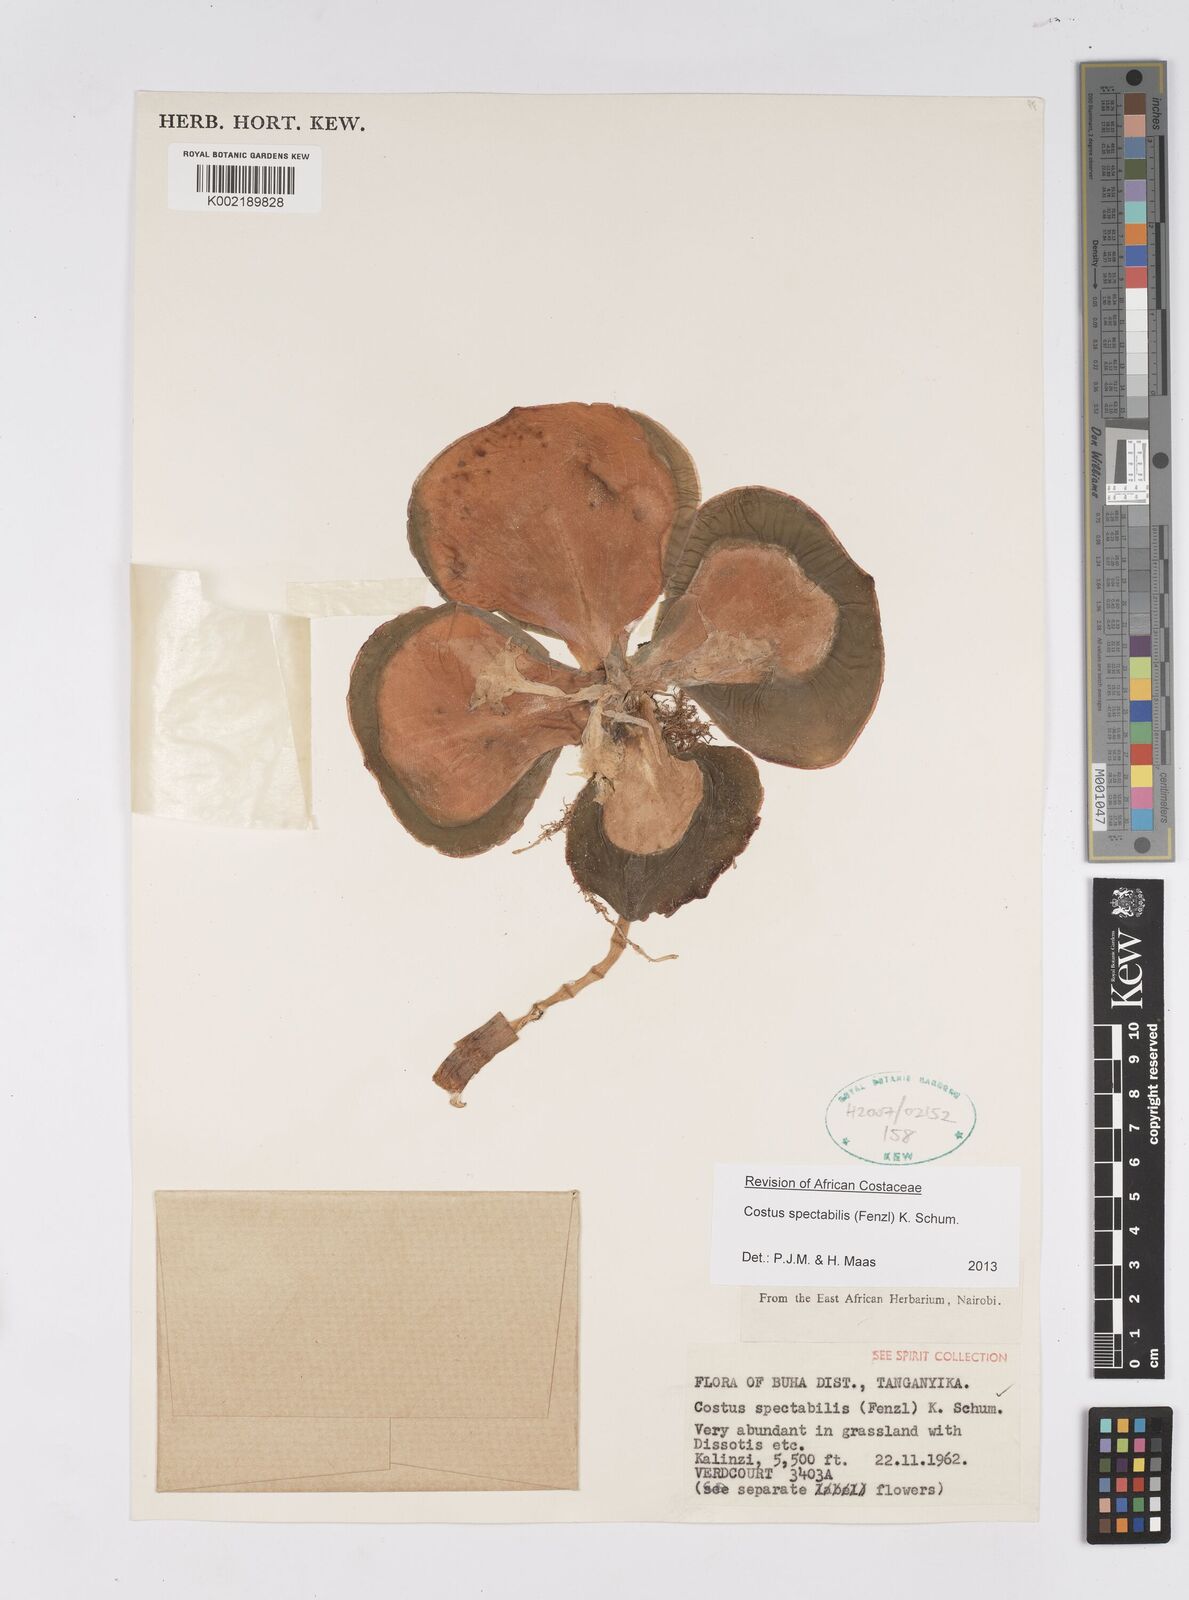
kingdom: Plantae
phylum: Tracheophyta
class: Liliopsida
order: Zingiberales
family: Costaceae
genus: Costus
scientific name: Costus spectabilis
